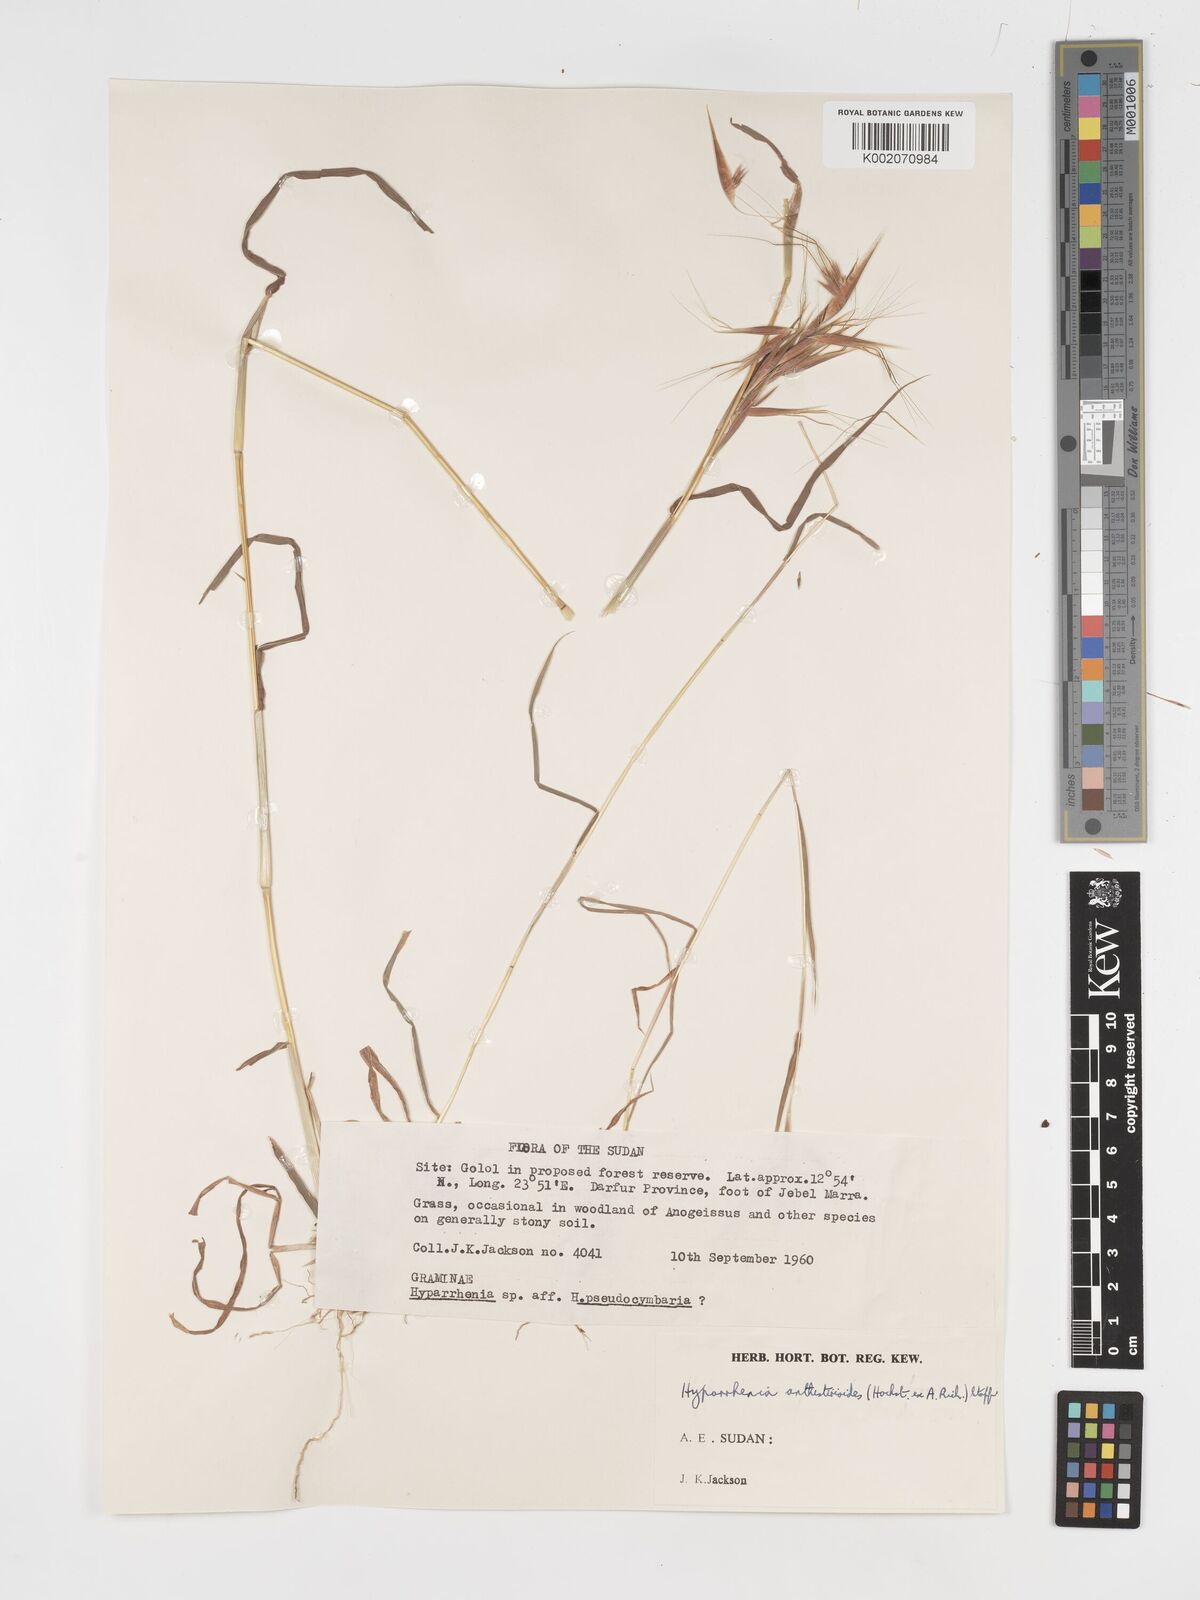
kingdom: Plantae
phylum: Tracheophyta
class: Liliopsida
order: Poales
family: Poaceae
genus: Hyparrhenia
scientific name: Hyparrhenia anthistirioides
